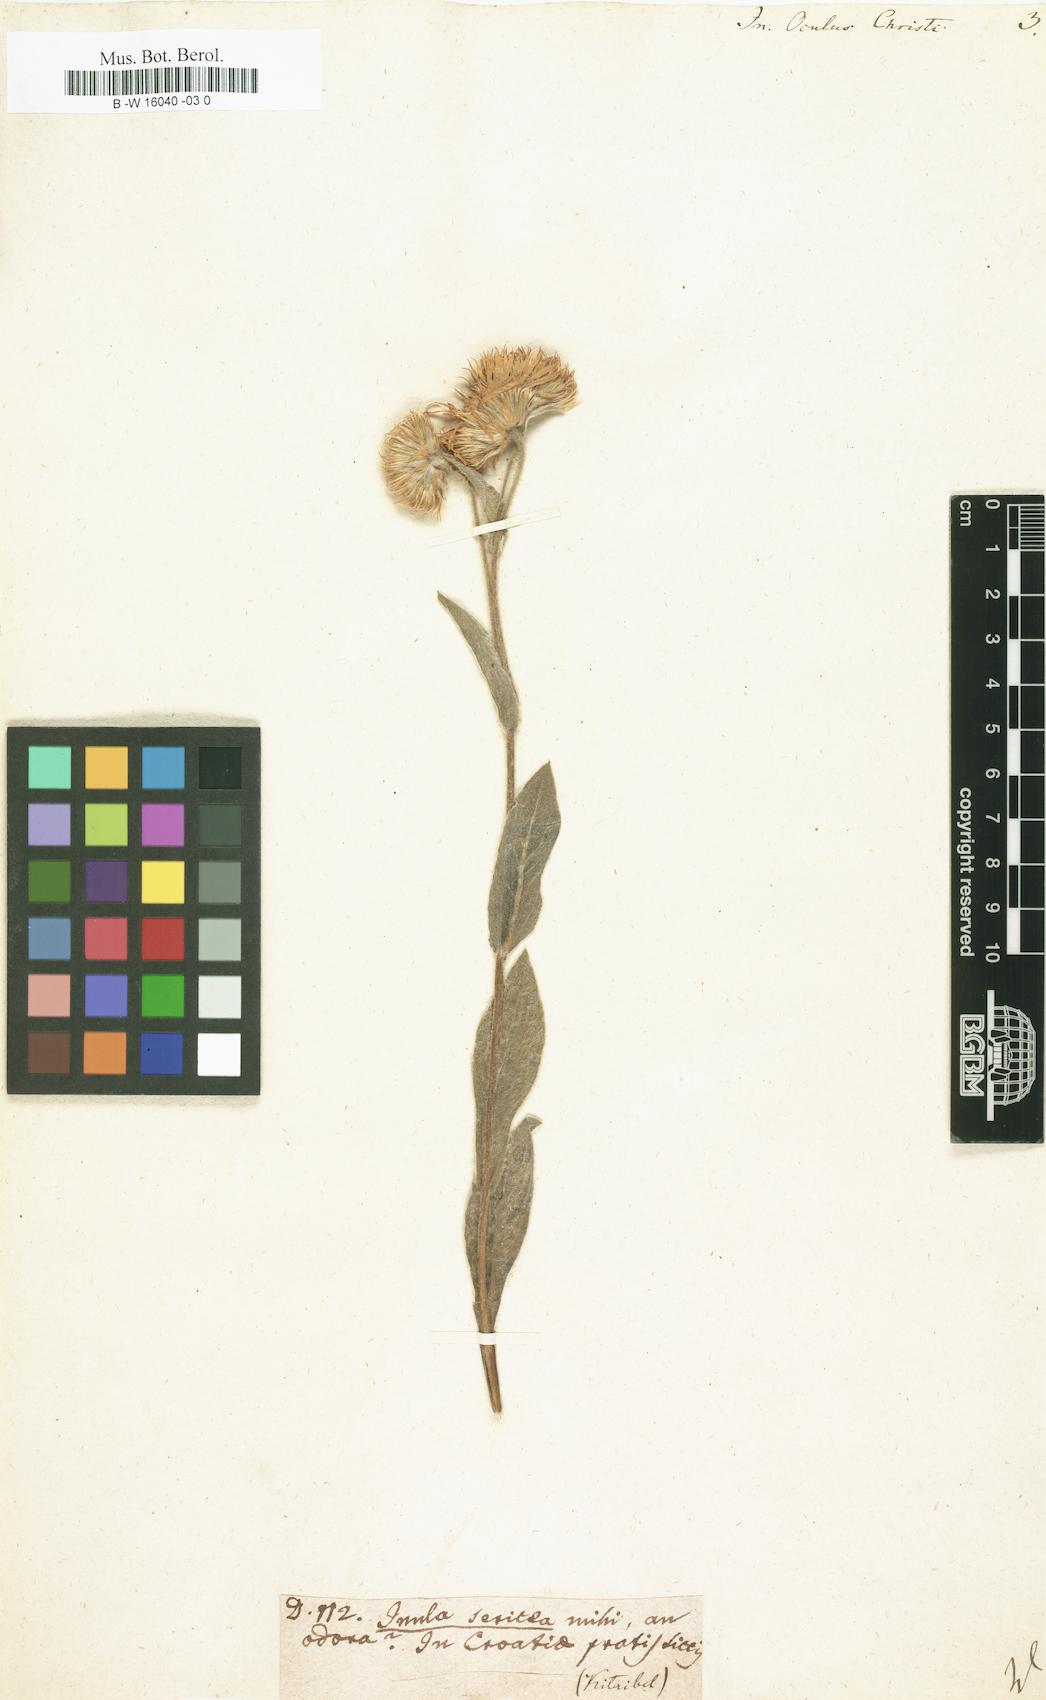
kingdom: Plantae
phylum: Tracheophyta
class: Magnoliopsida
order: Asterales
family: Asteraceae
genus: Inula
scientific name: Inula oculus-christi
